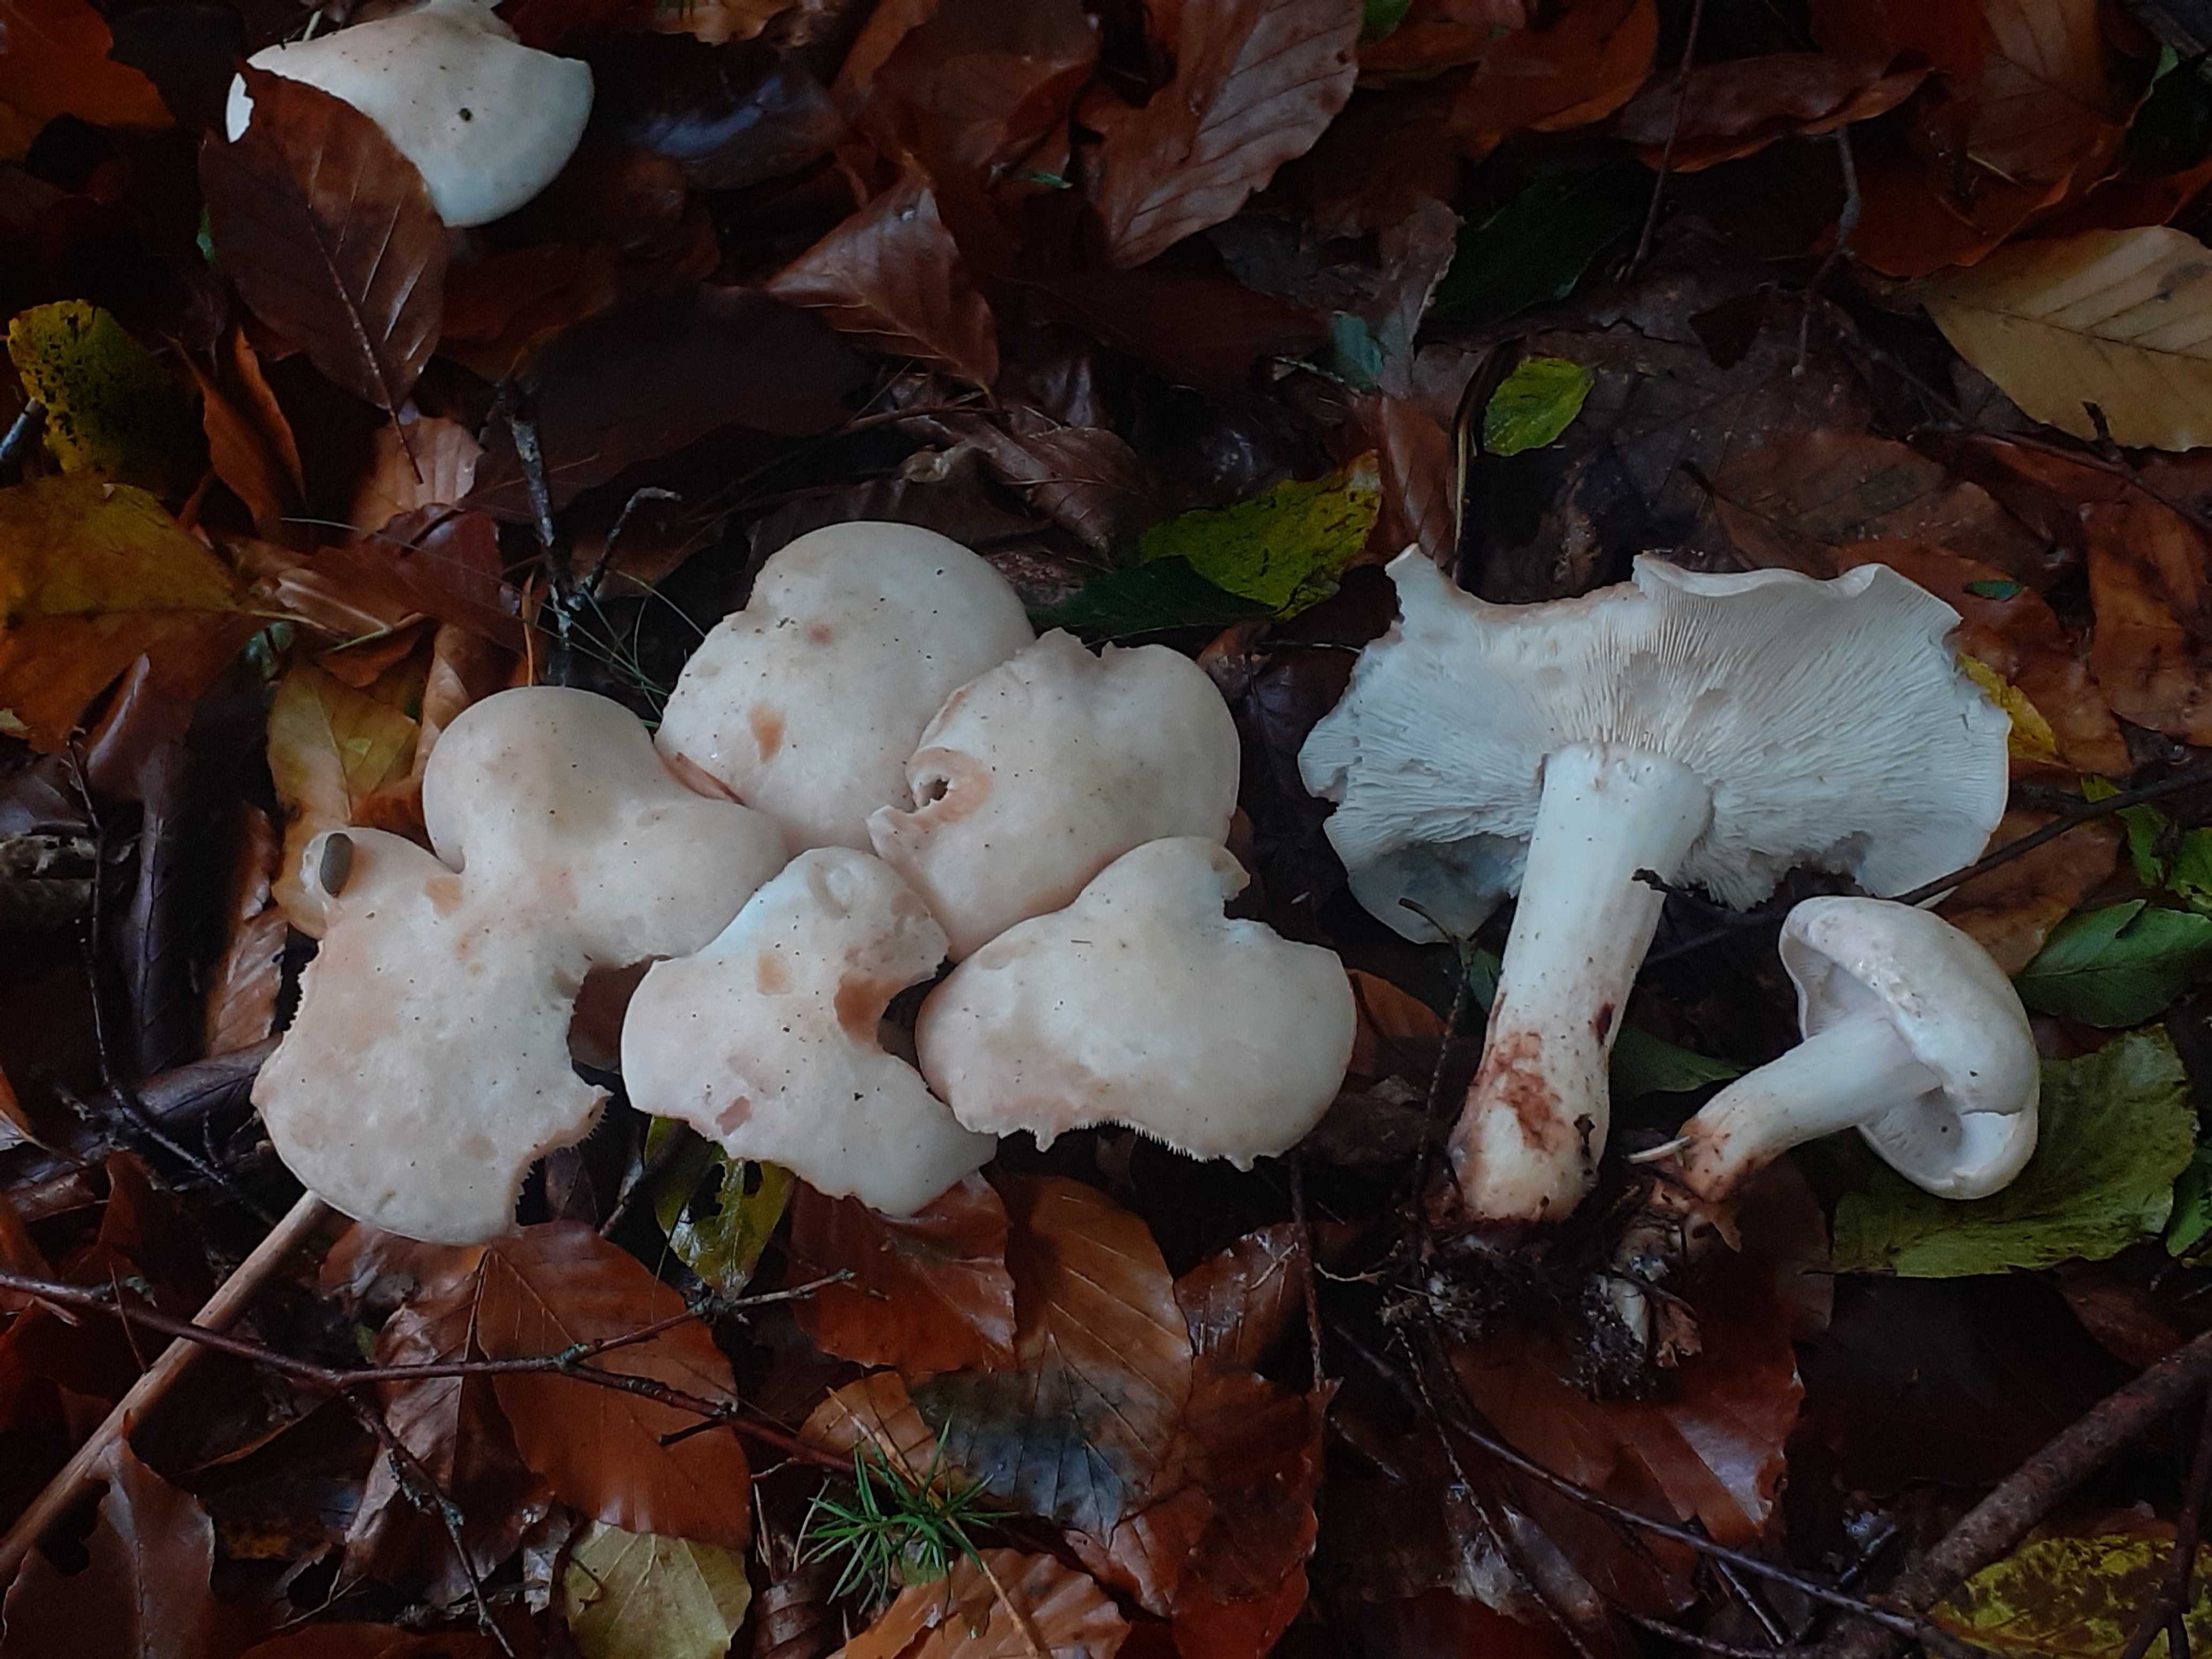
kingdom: Fungi
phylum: Basidiomycota
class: Agaricomycetes
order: Agaricales
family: Omphalotaceae
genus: Rhodocollybia
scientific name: Rhodocollybia maculata
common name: plettet fladhat
